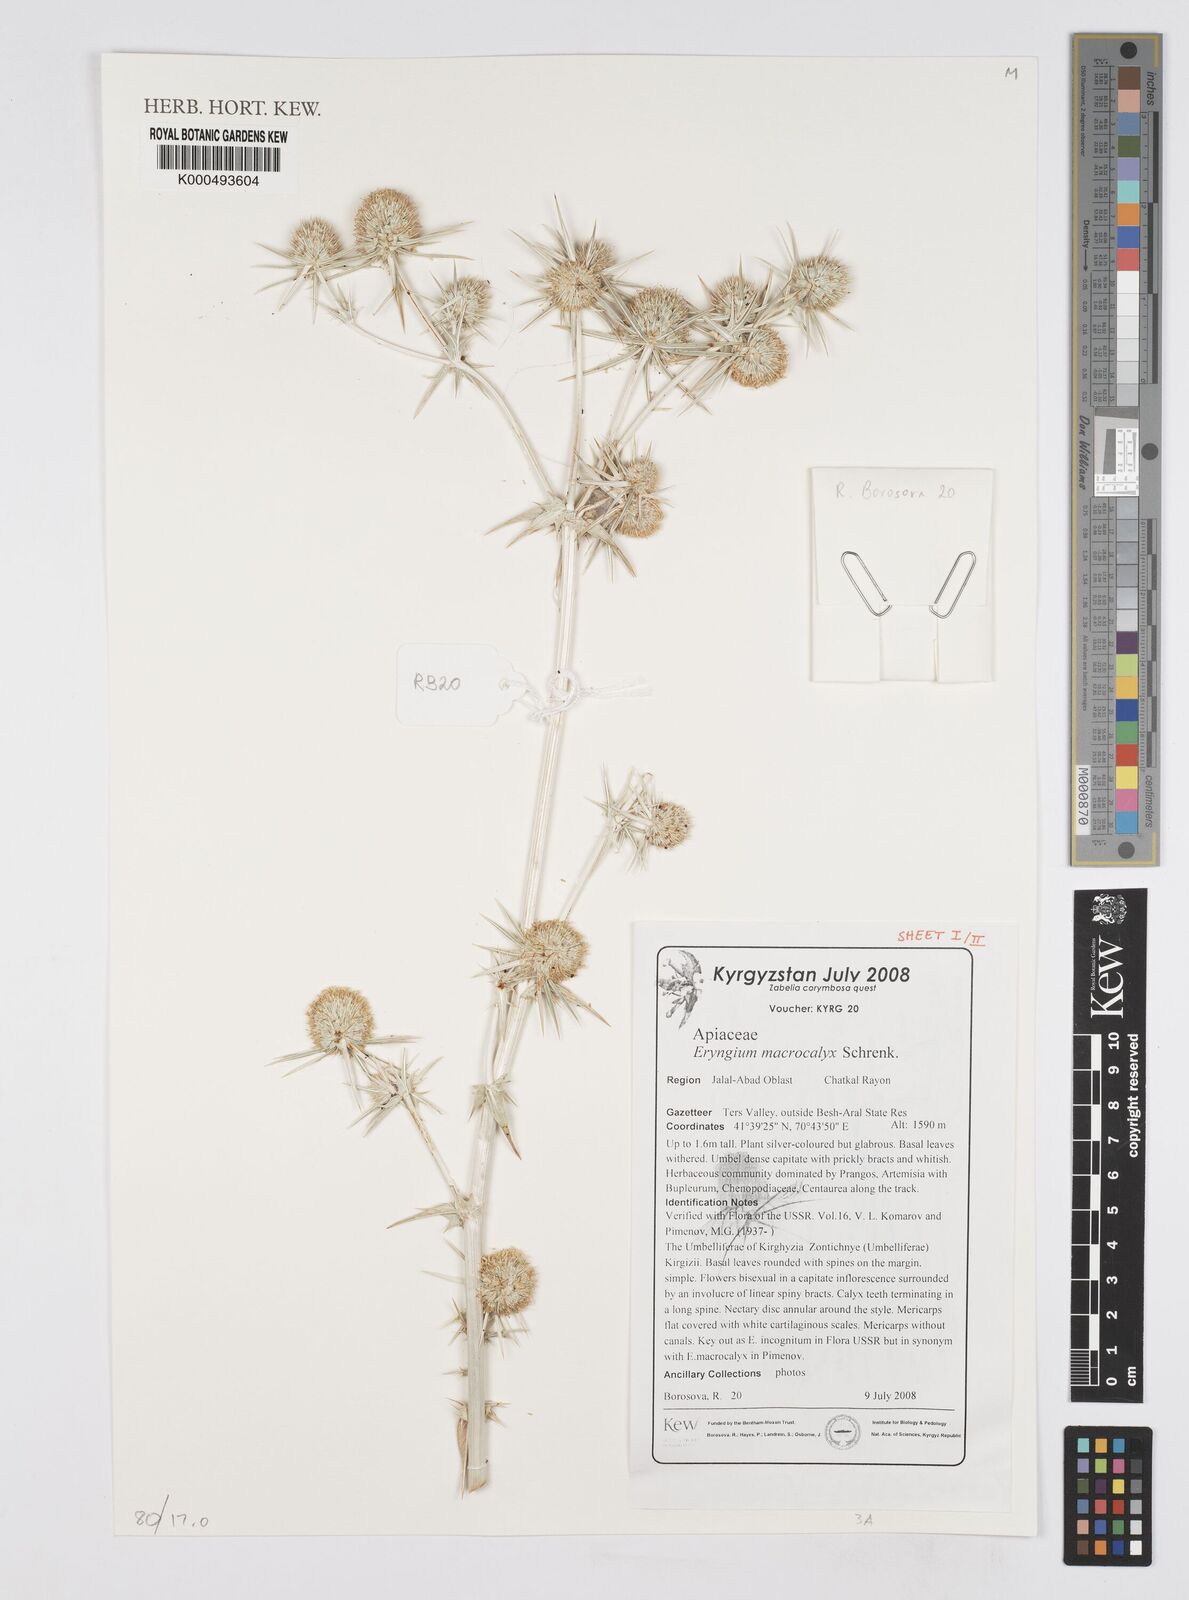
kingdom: Plantae
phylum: Tracheophyta
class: Magnoliopsida
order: Apiales
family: Apiaceae
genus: Eryngium
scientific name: Eryngium macrocalyx
